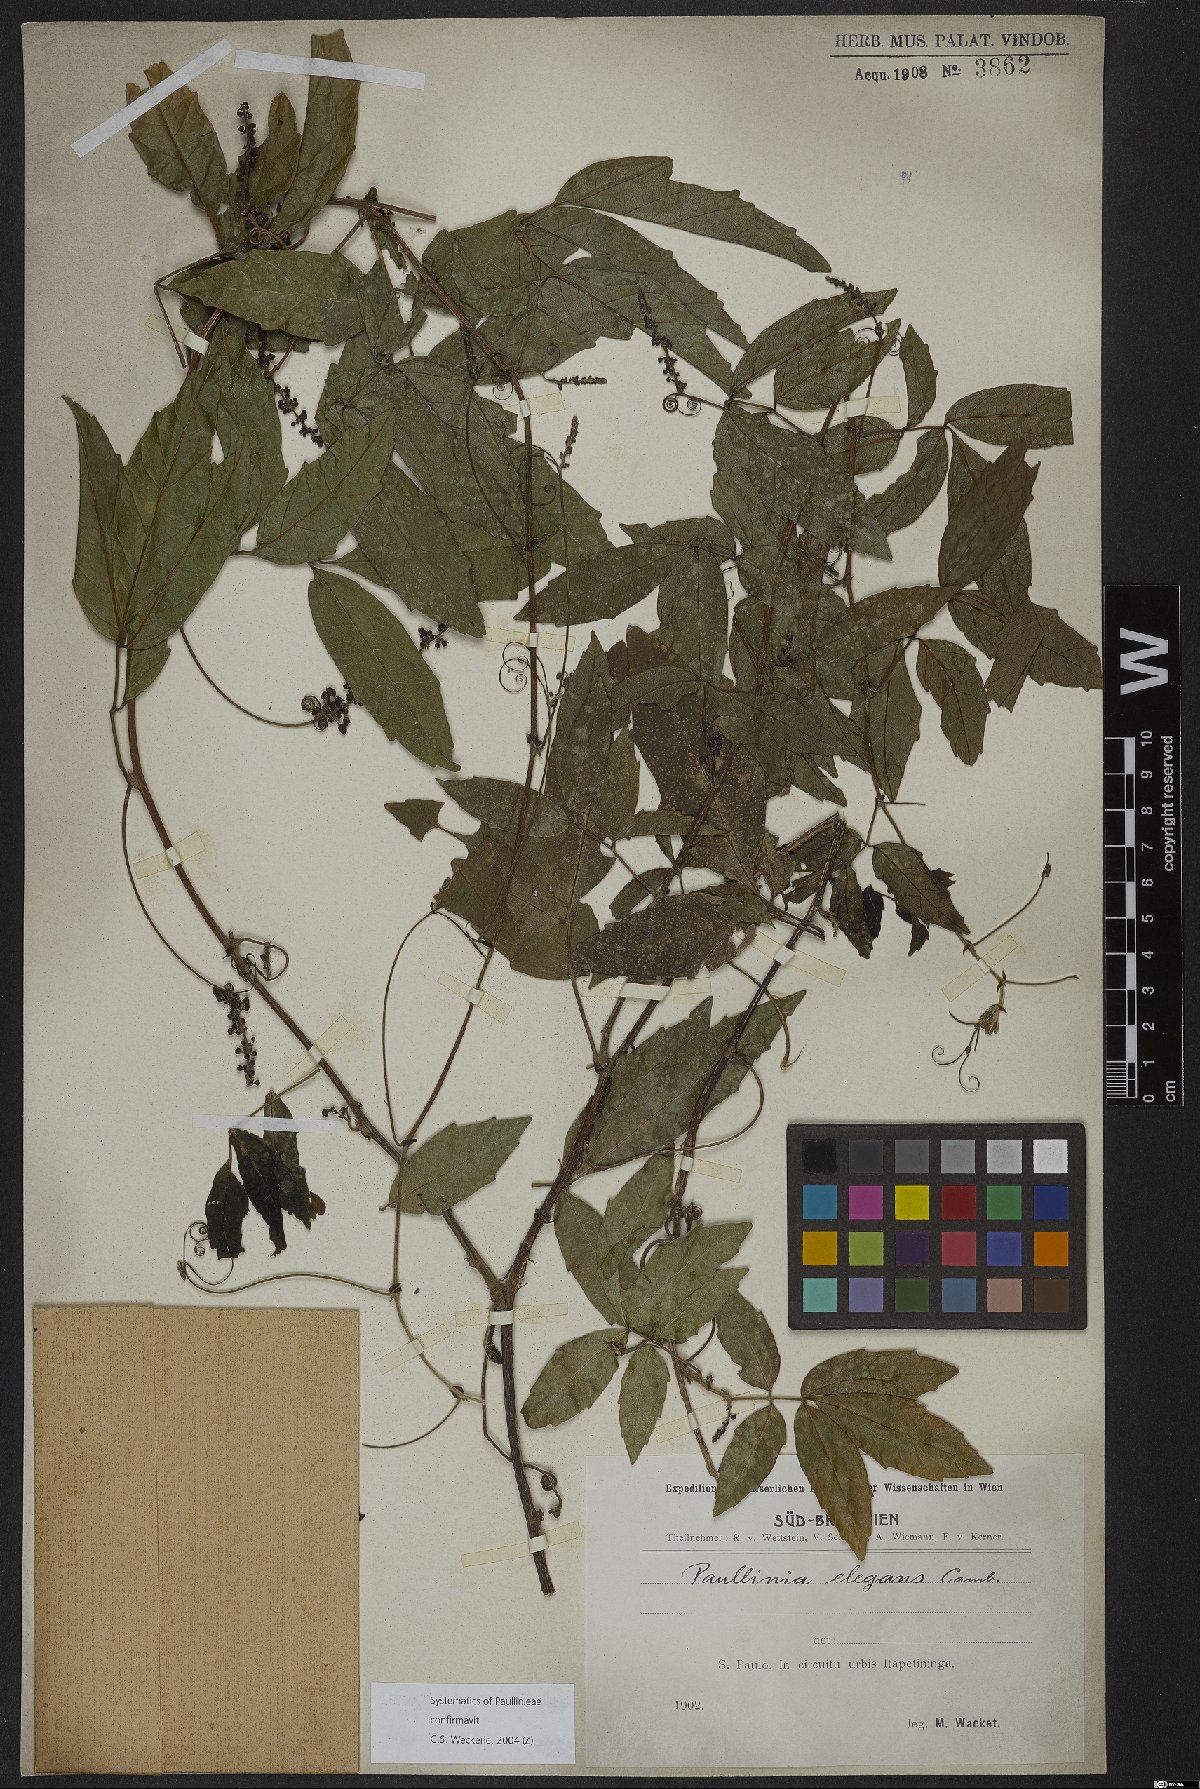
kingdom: Plantae
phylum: Tracheophyta
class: Magnoliopsida
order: Sapindales
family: Sapindaceae
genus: Paullinia
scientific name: Paullinia elegans
